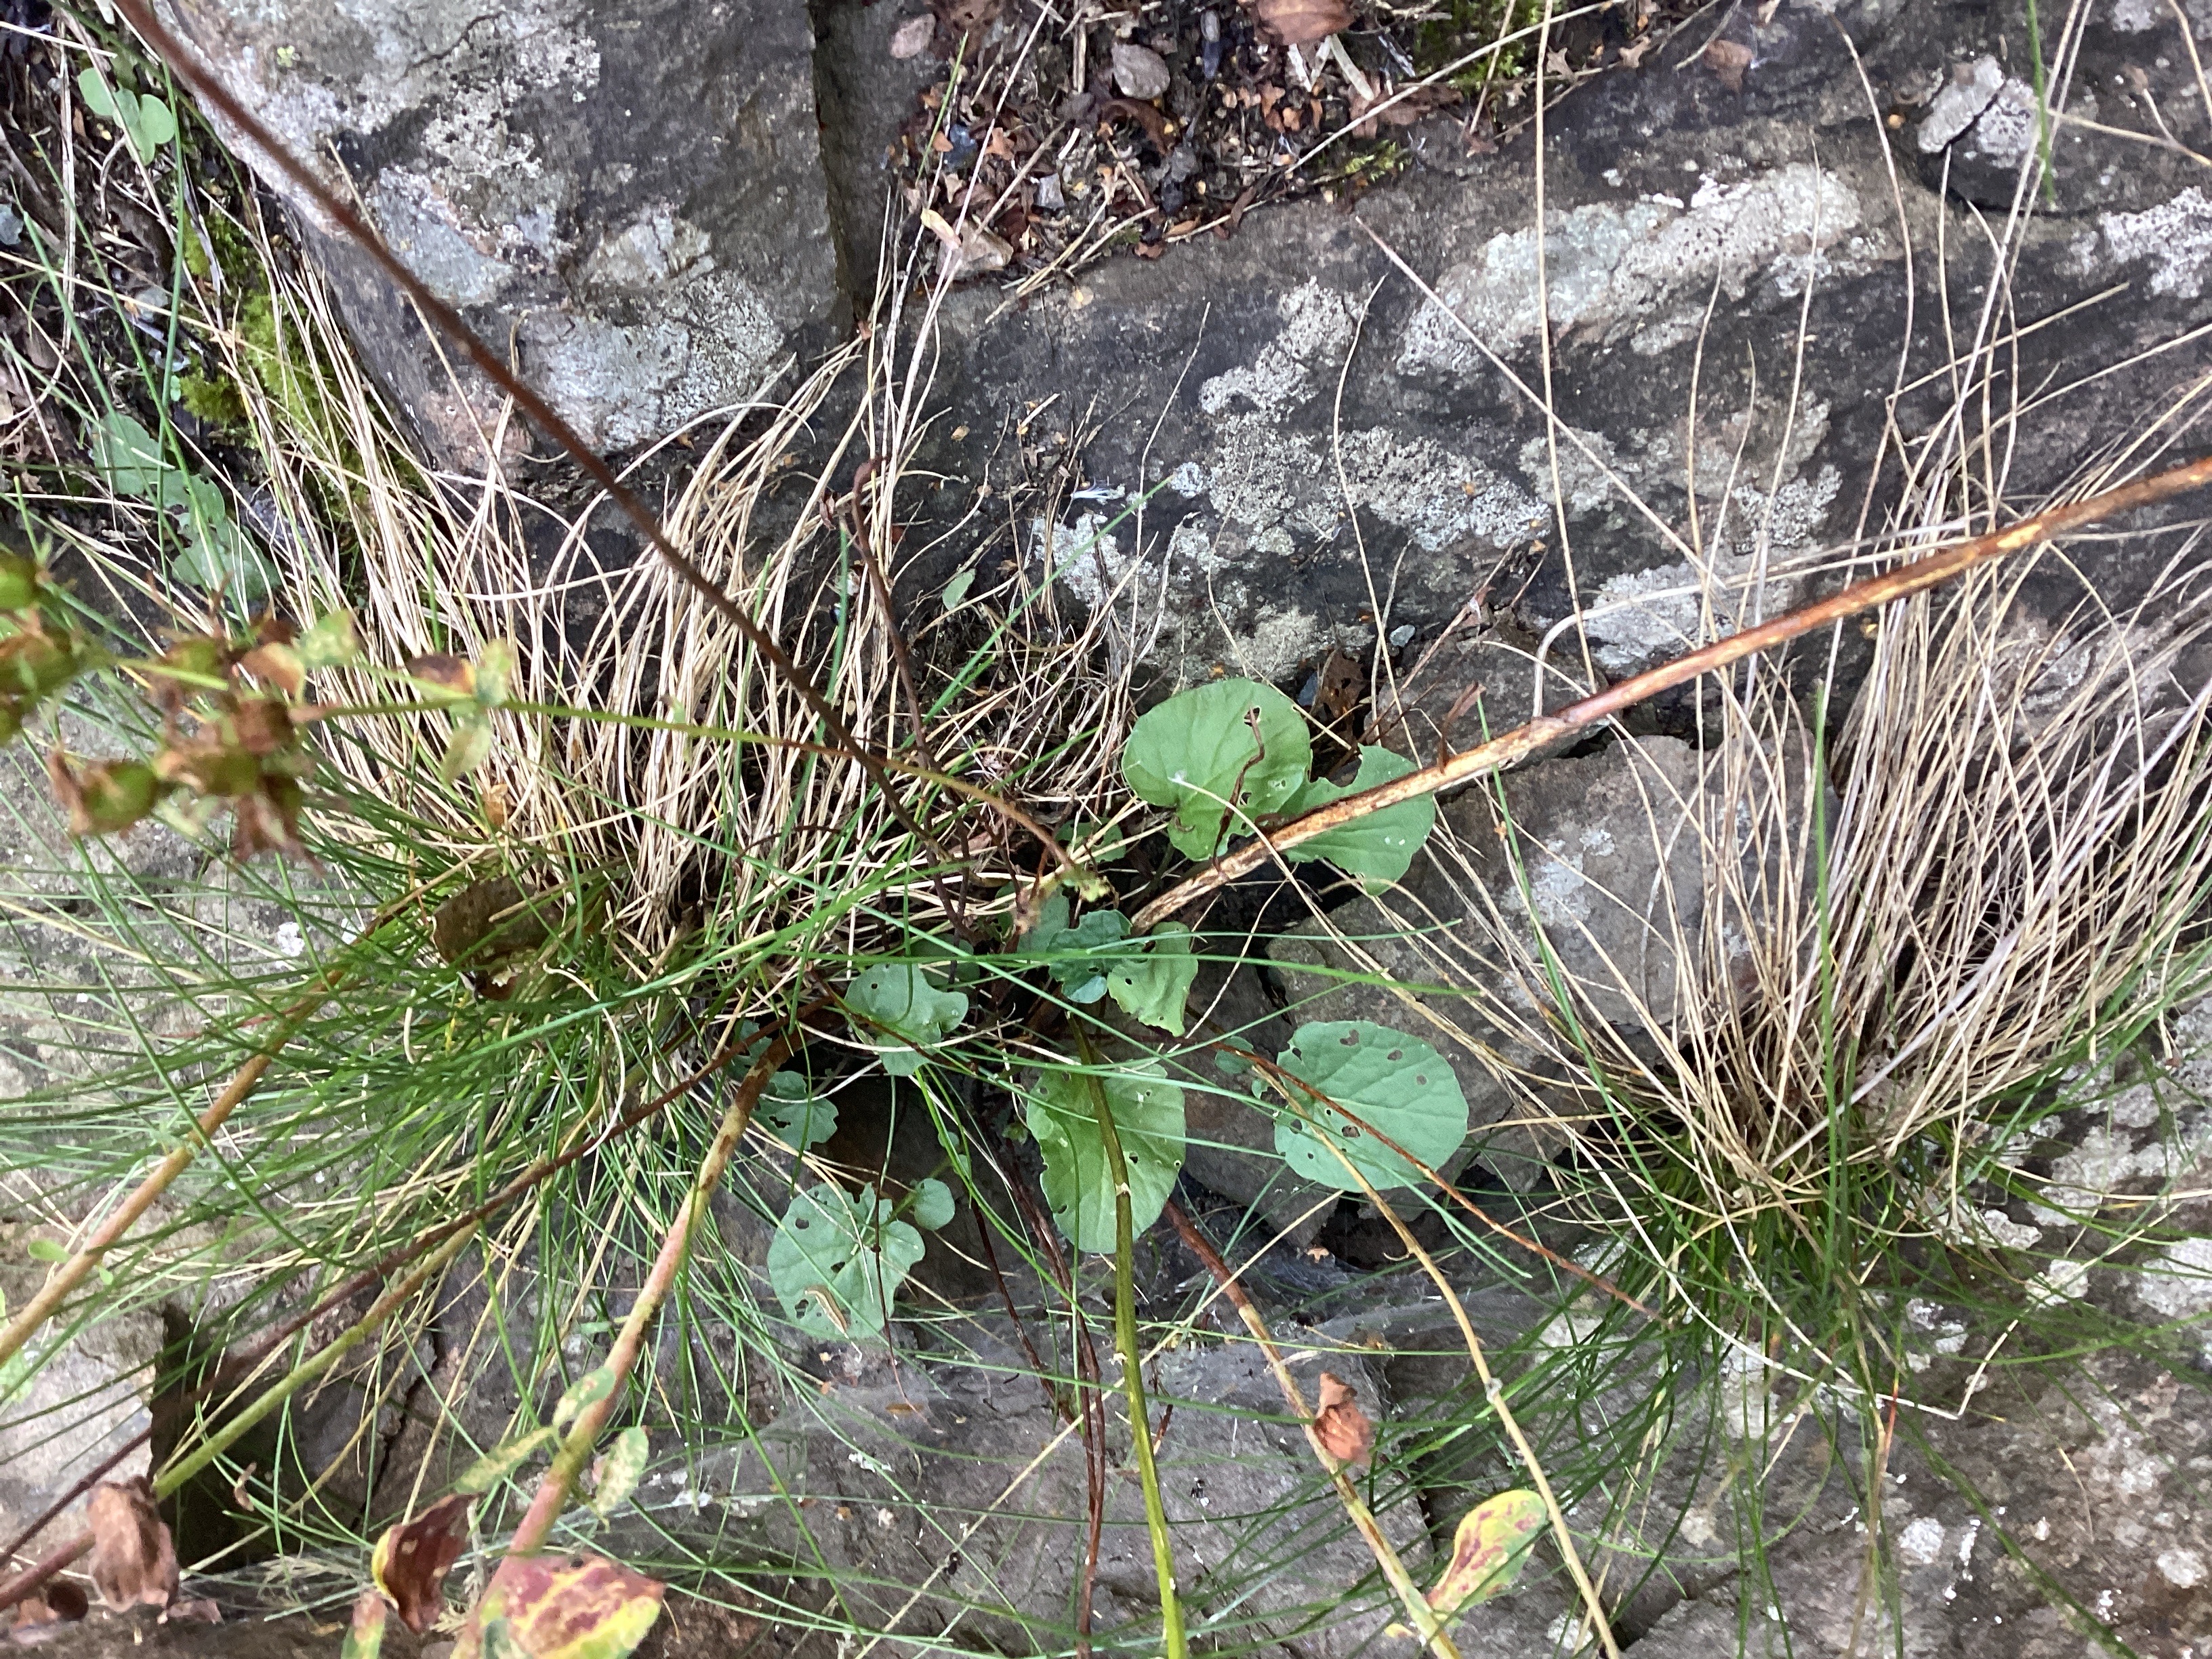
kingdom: Plantae
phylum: Tracheophyta
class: Magnoliopsida
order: Brassicales
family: Brassicaceae
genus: Barbarea
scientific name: Barbarea vulgaris
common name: vinterkarse
